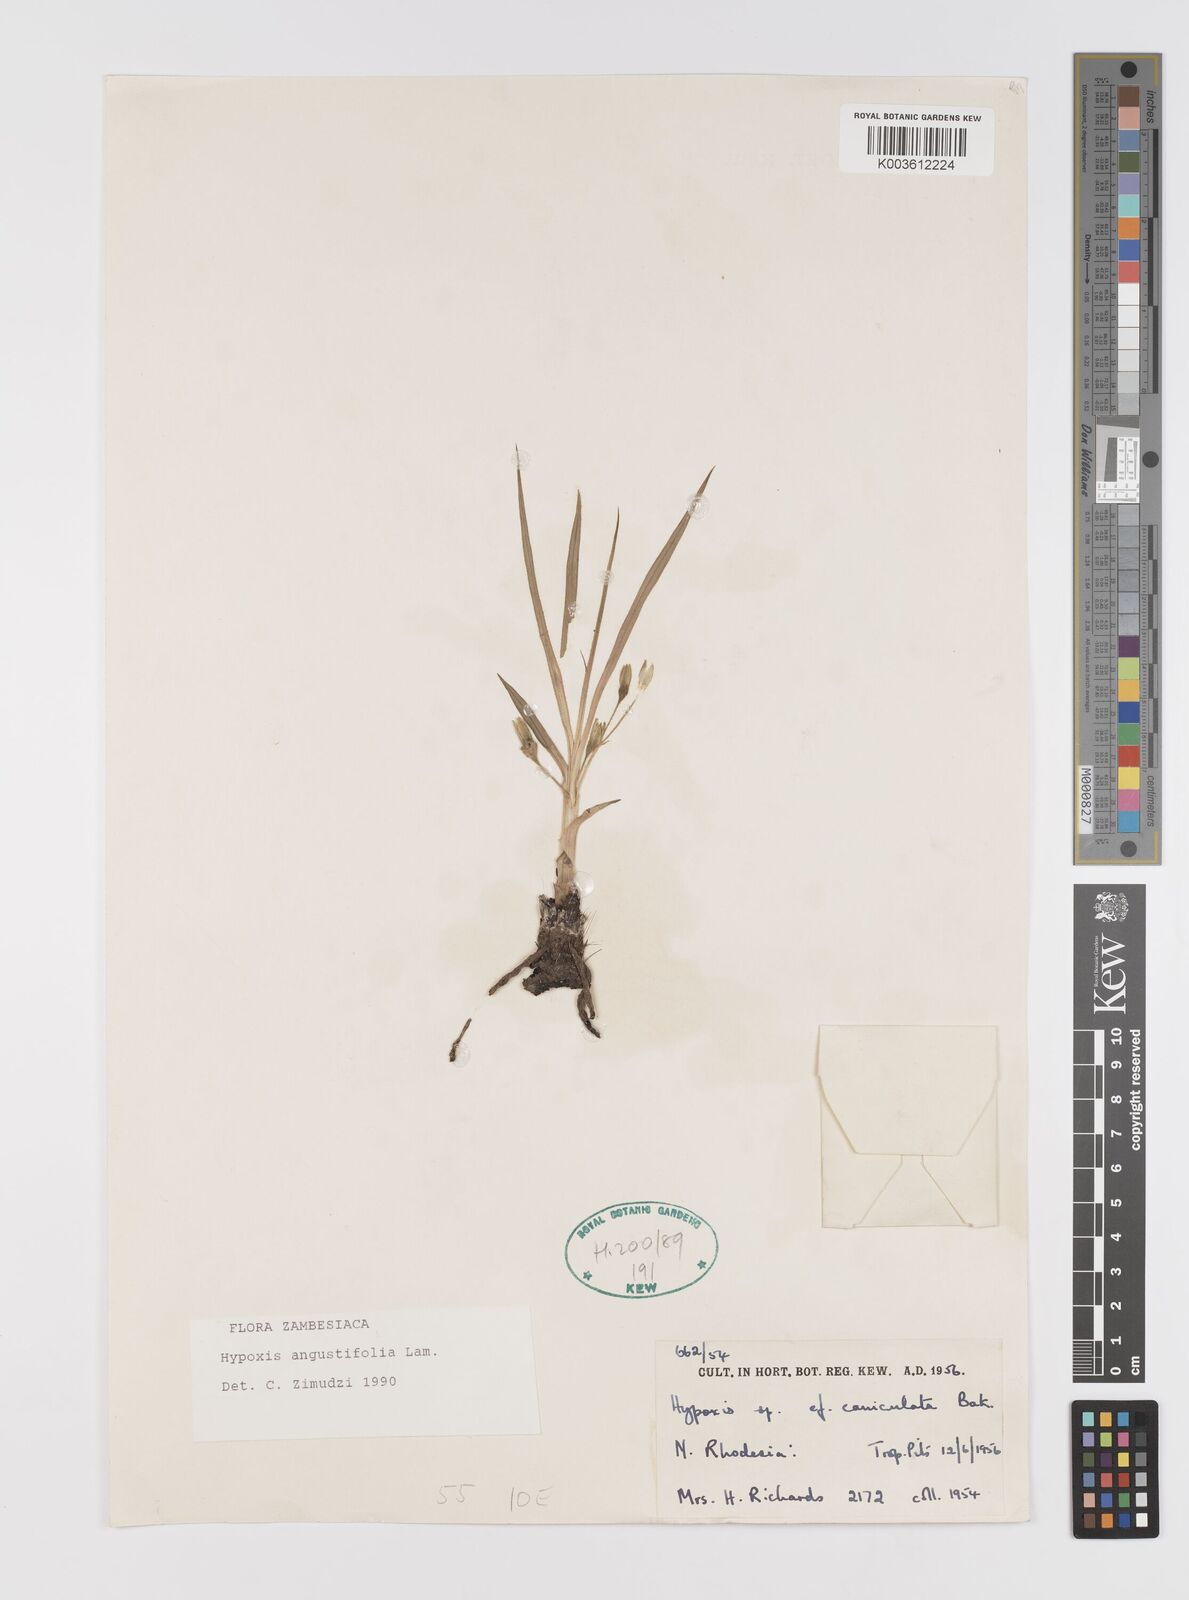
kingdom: Plantae
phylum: Tracheophyta
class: Liliopsida
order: Asparagales
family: Hypoxidaceae
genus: Hypoxis
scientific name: Hypoxis angustifolia
